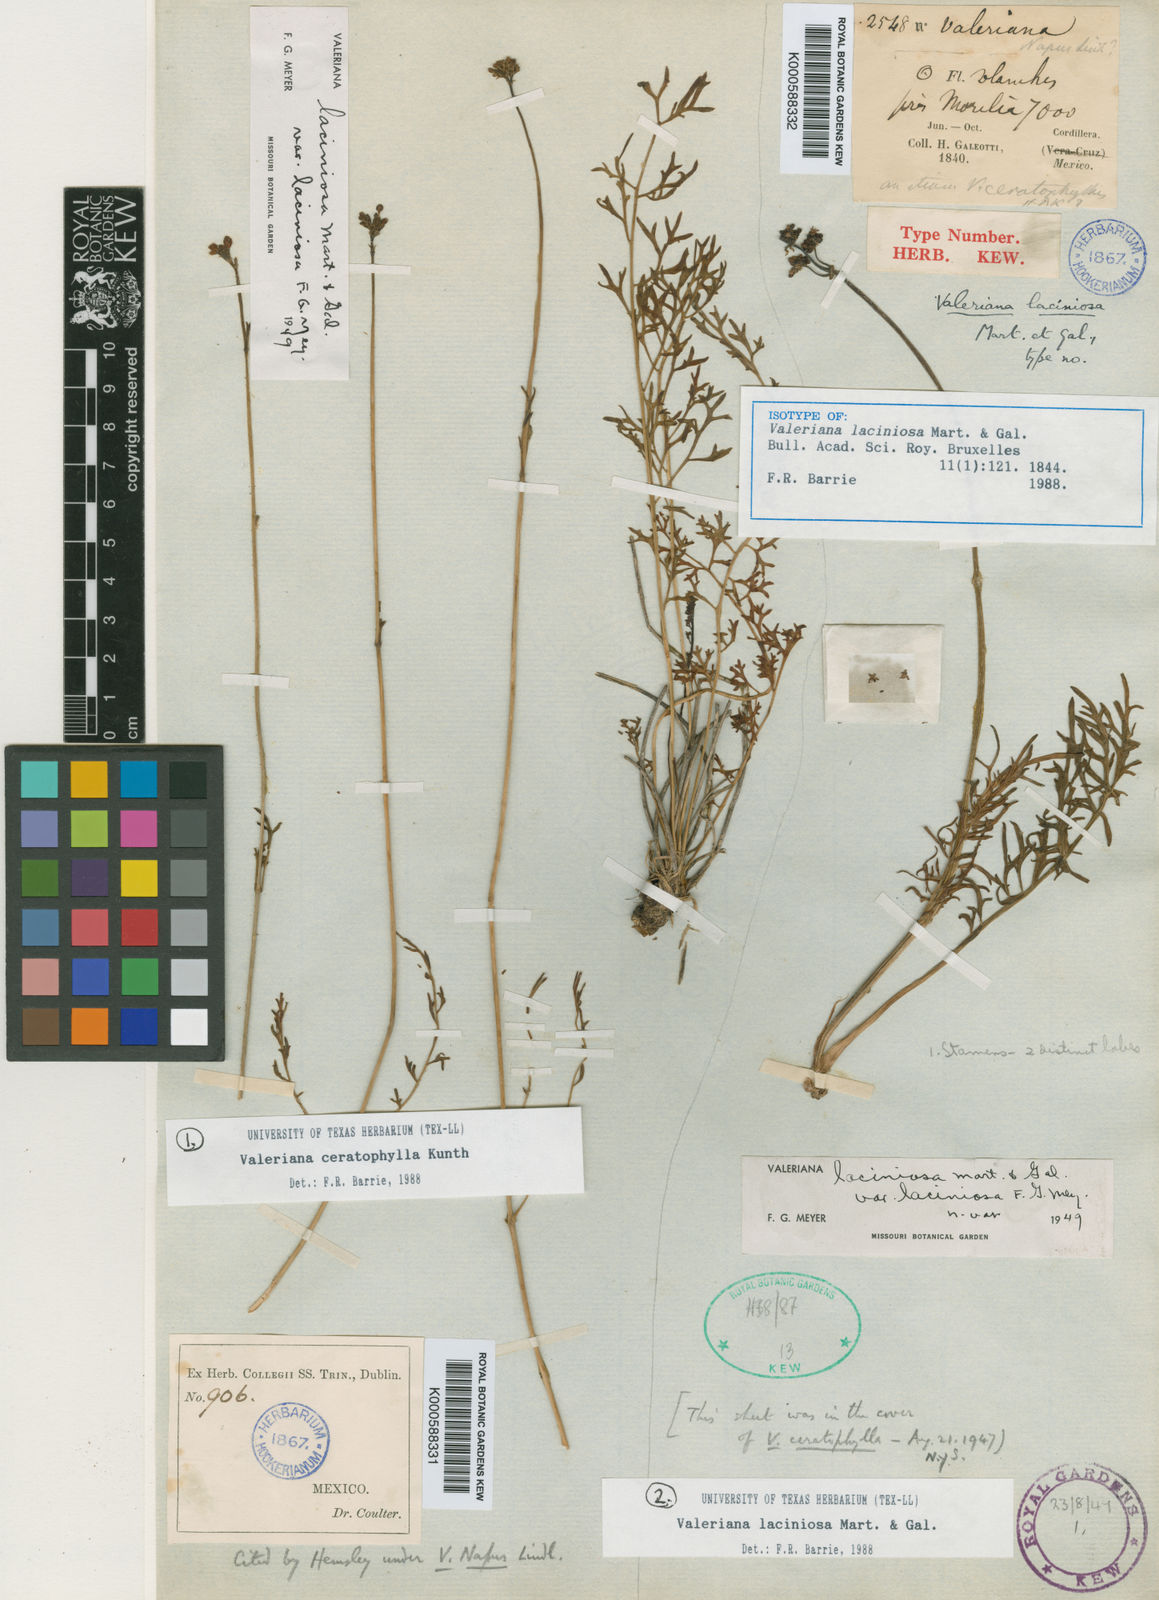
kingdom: Plantae
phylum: Tracheophyta
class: Magnoliopsida
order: Dipsacales
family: Caprifoliaceae
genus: Valeriana
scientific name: Valeriana laciniosa
